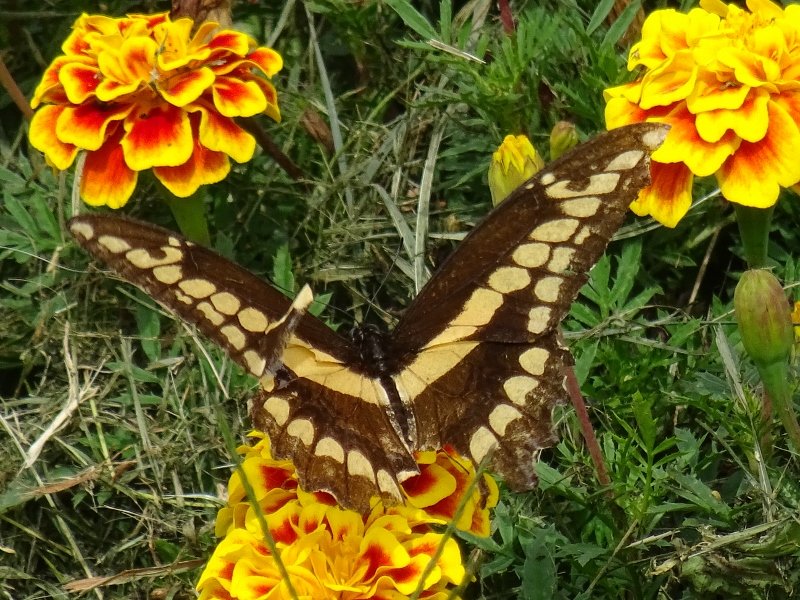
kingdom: Animalia
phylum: Arthropoda
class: Insecta
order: Lepidoptera
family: Papilionidae
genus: Papilio
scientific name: Papilio cresphontes
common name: Eastern Giant Swallowtail
